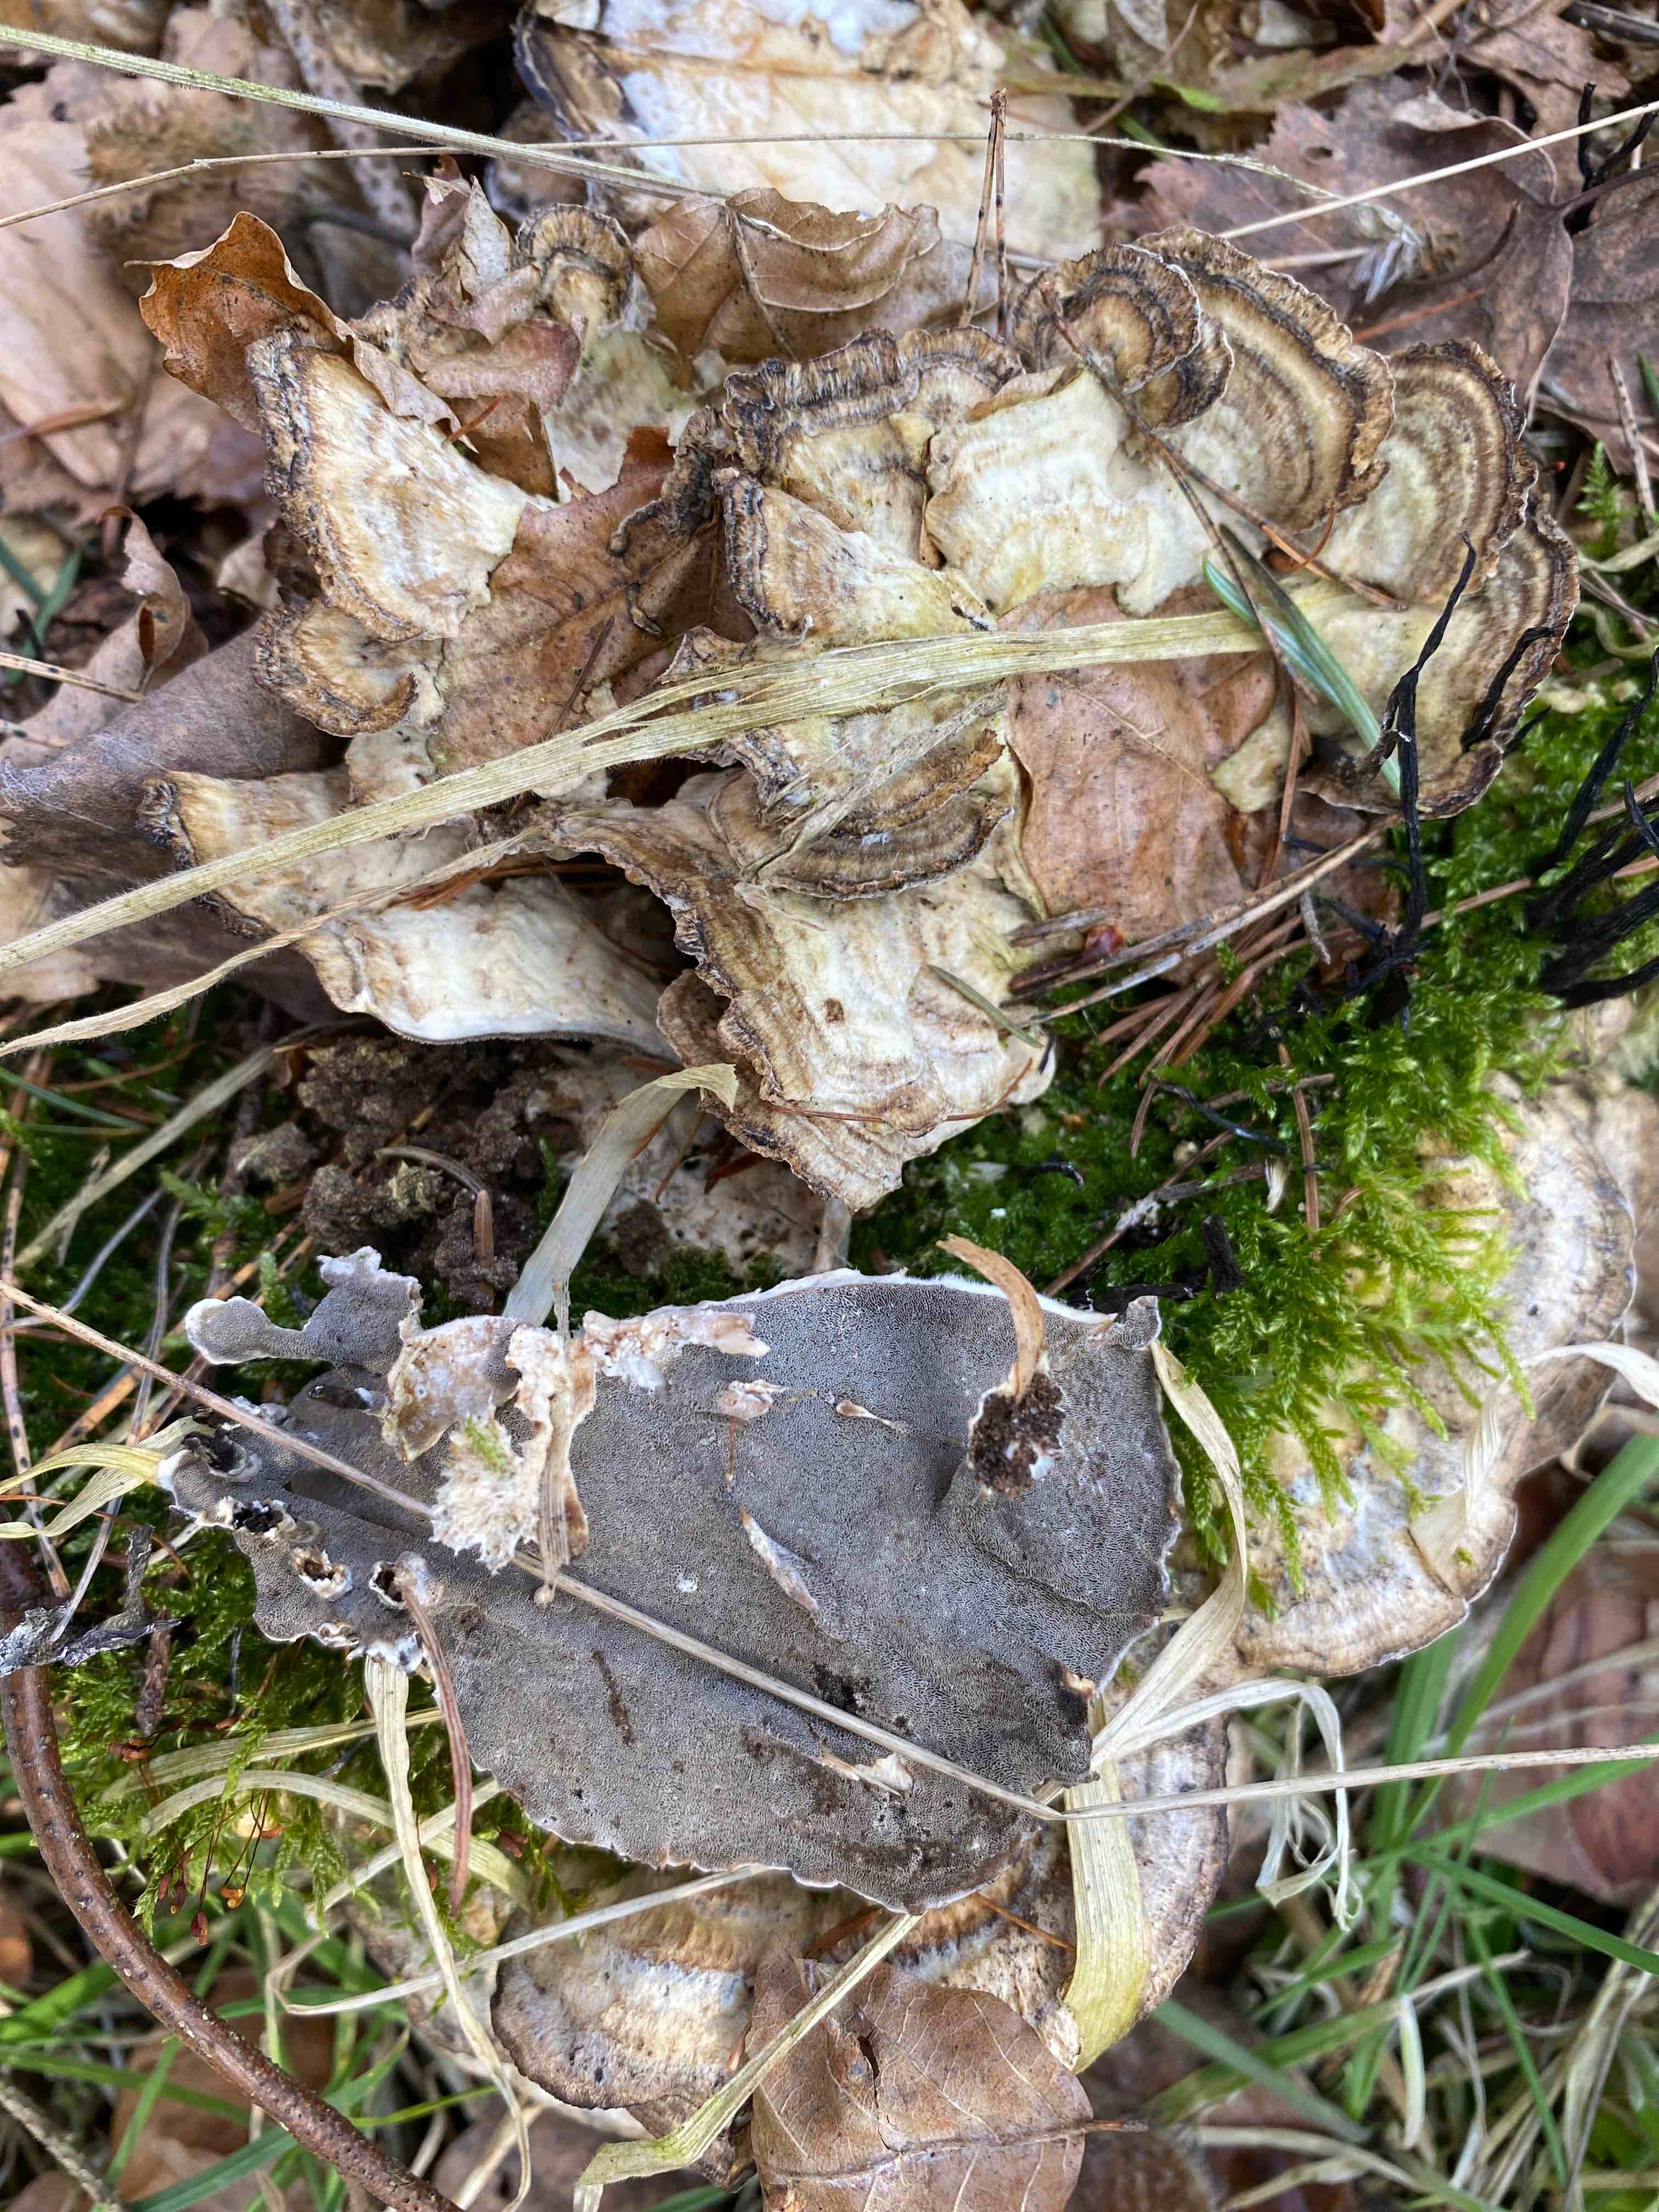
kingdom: Fungi
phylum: Basidiomycota
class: Agaricomycetes
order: Polyporales
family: Phanerochaetaceae
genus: Bjerkandera
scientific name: Bjerkandera adusta
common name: sveden sodporesvamp
